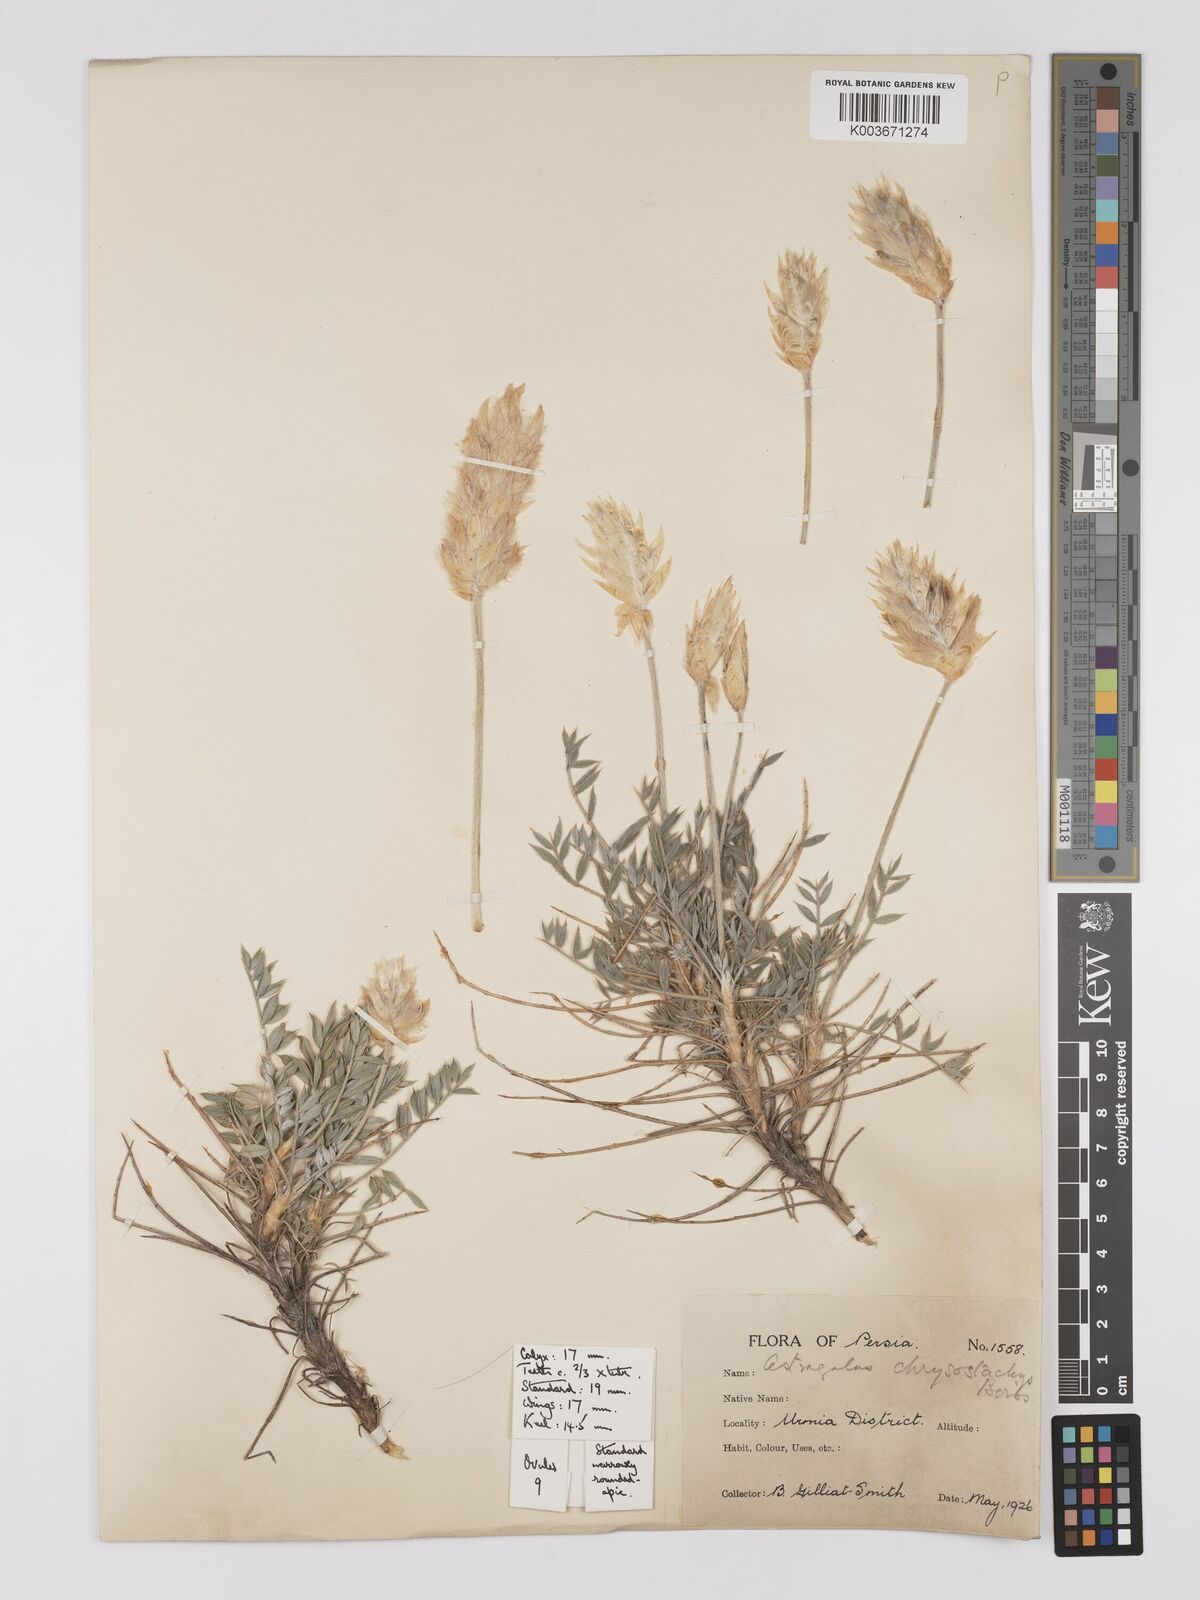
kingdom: Plantae
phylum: Tracheophyta
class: Magnoliopsida
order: Fabales
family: Fabaceae
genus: Astragalus
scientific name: Astragalus chrysostachys
